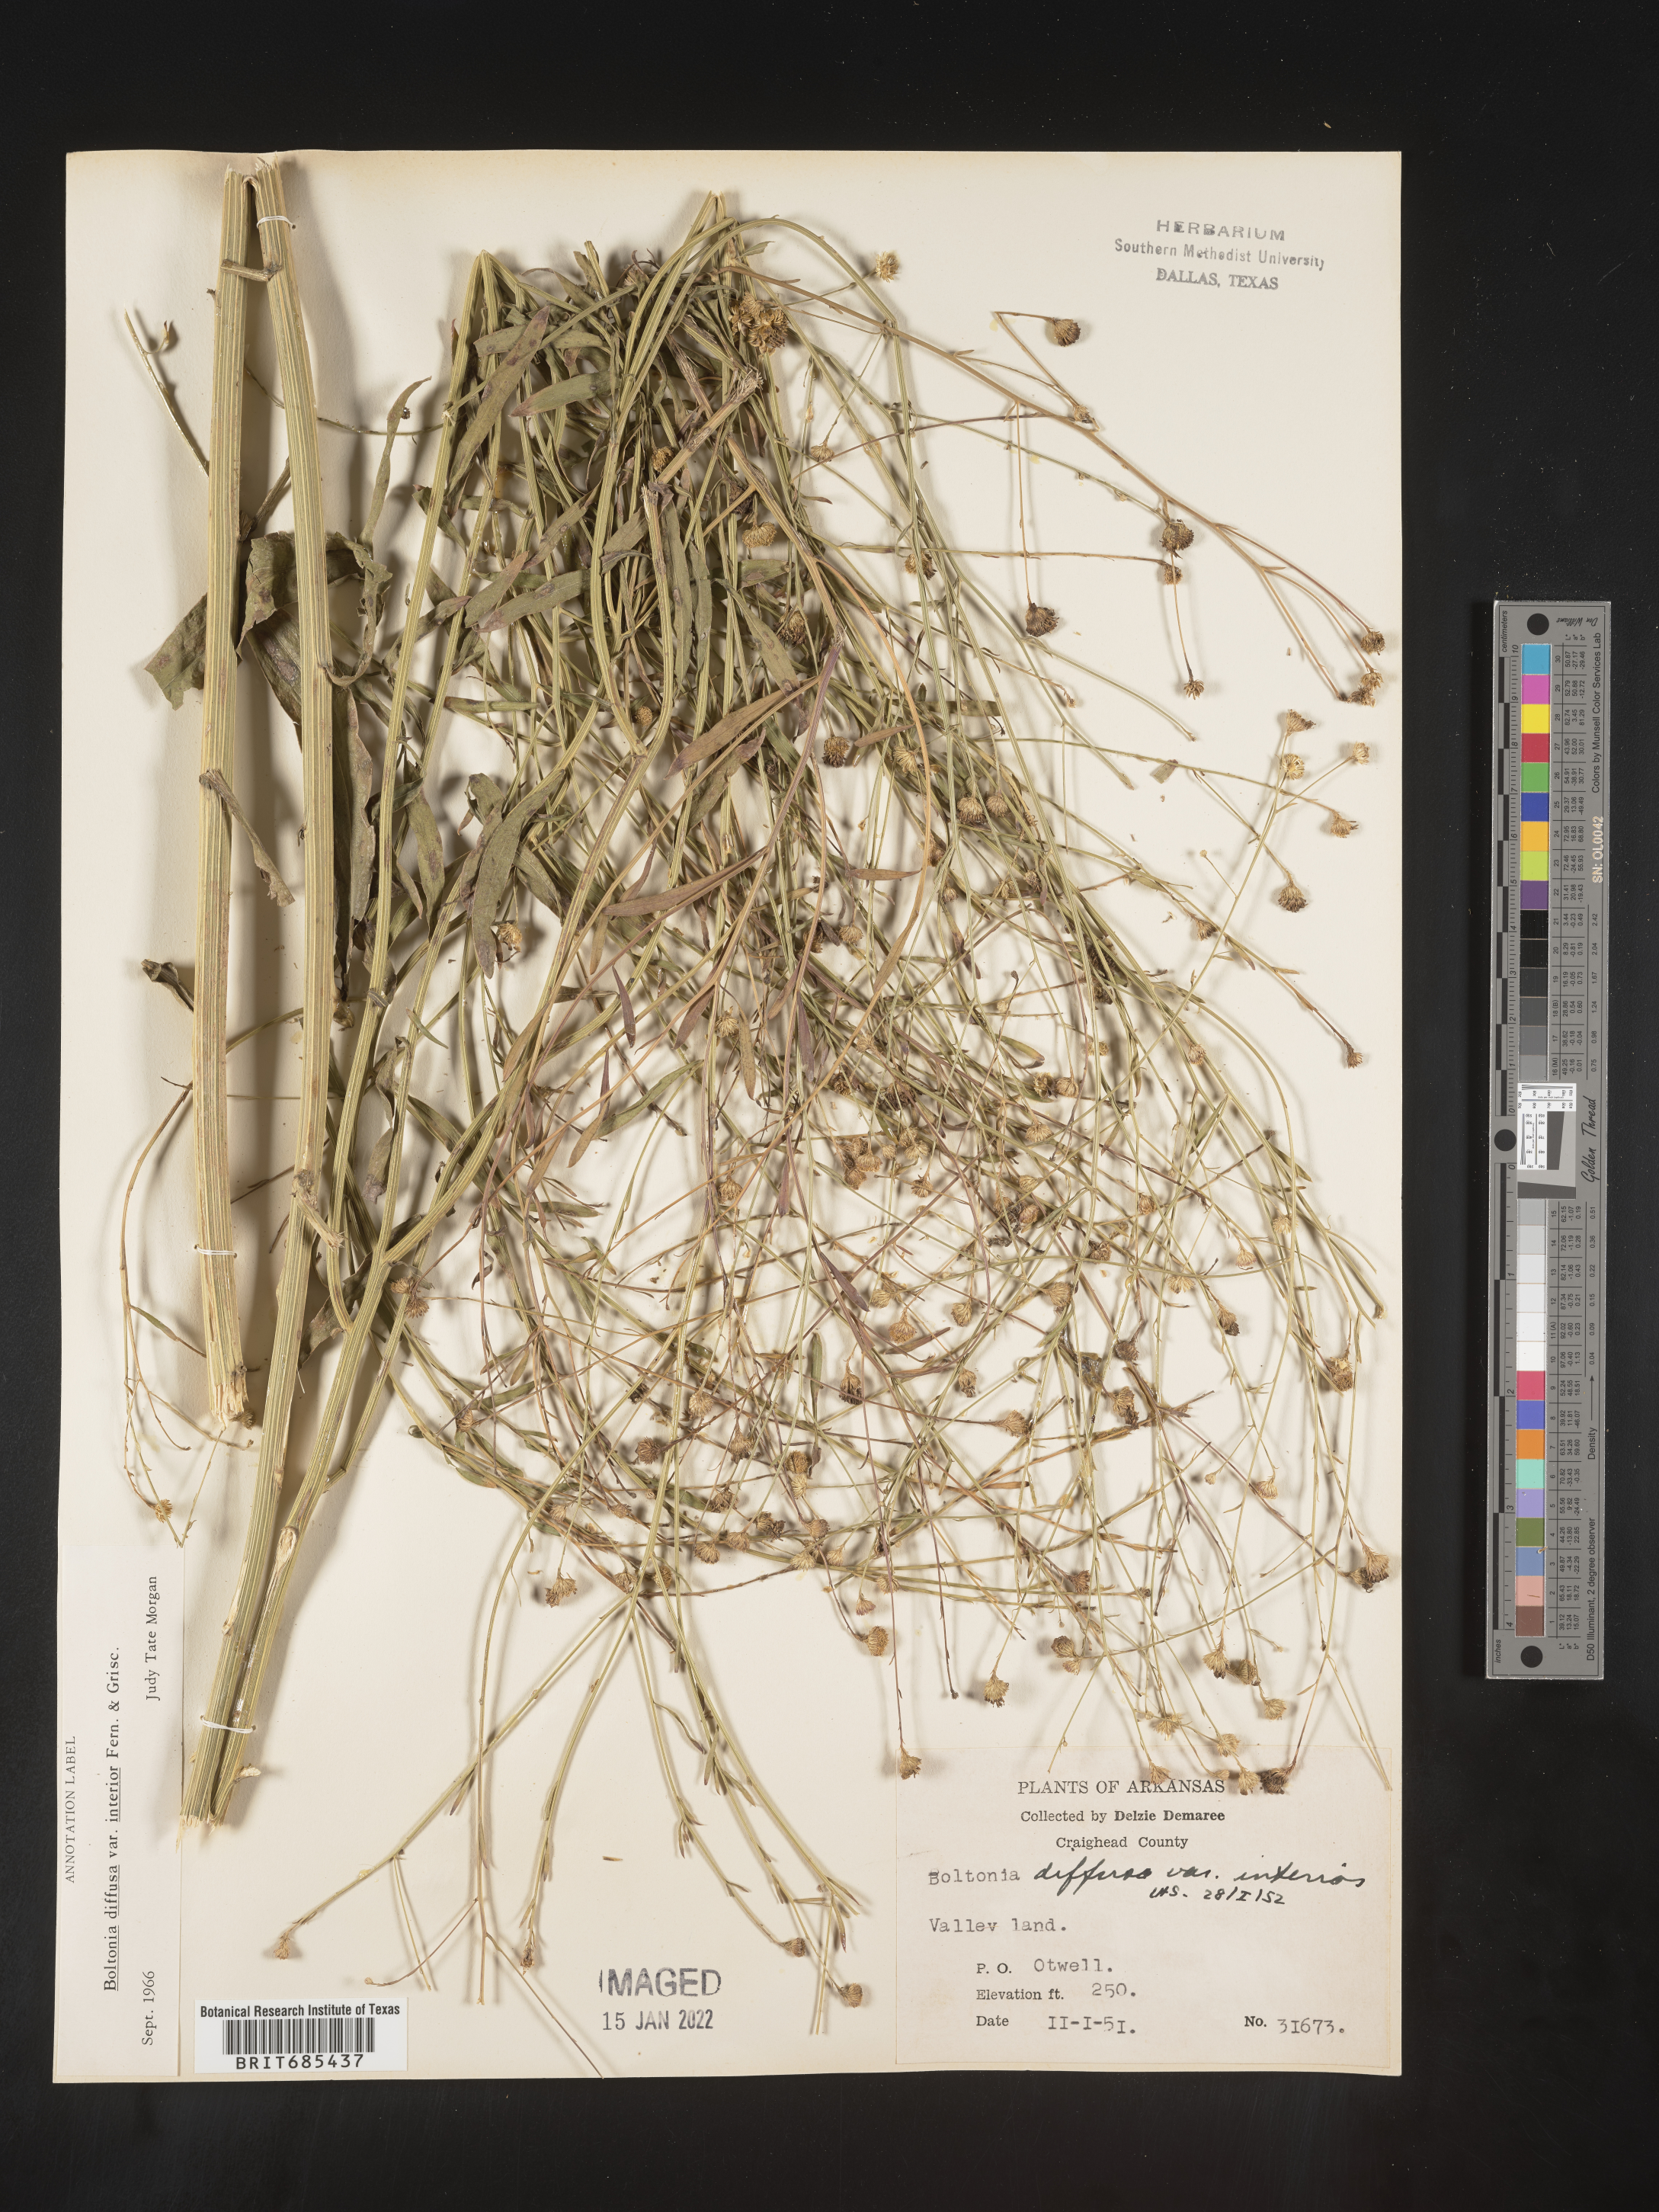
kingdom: Plantae
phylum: Tracheophyta
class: Magnoliopsida
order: Asterales
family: Asteraceae
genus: Boltonia
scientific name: Boltonia diffusa
